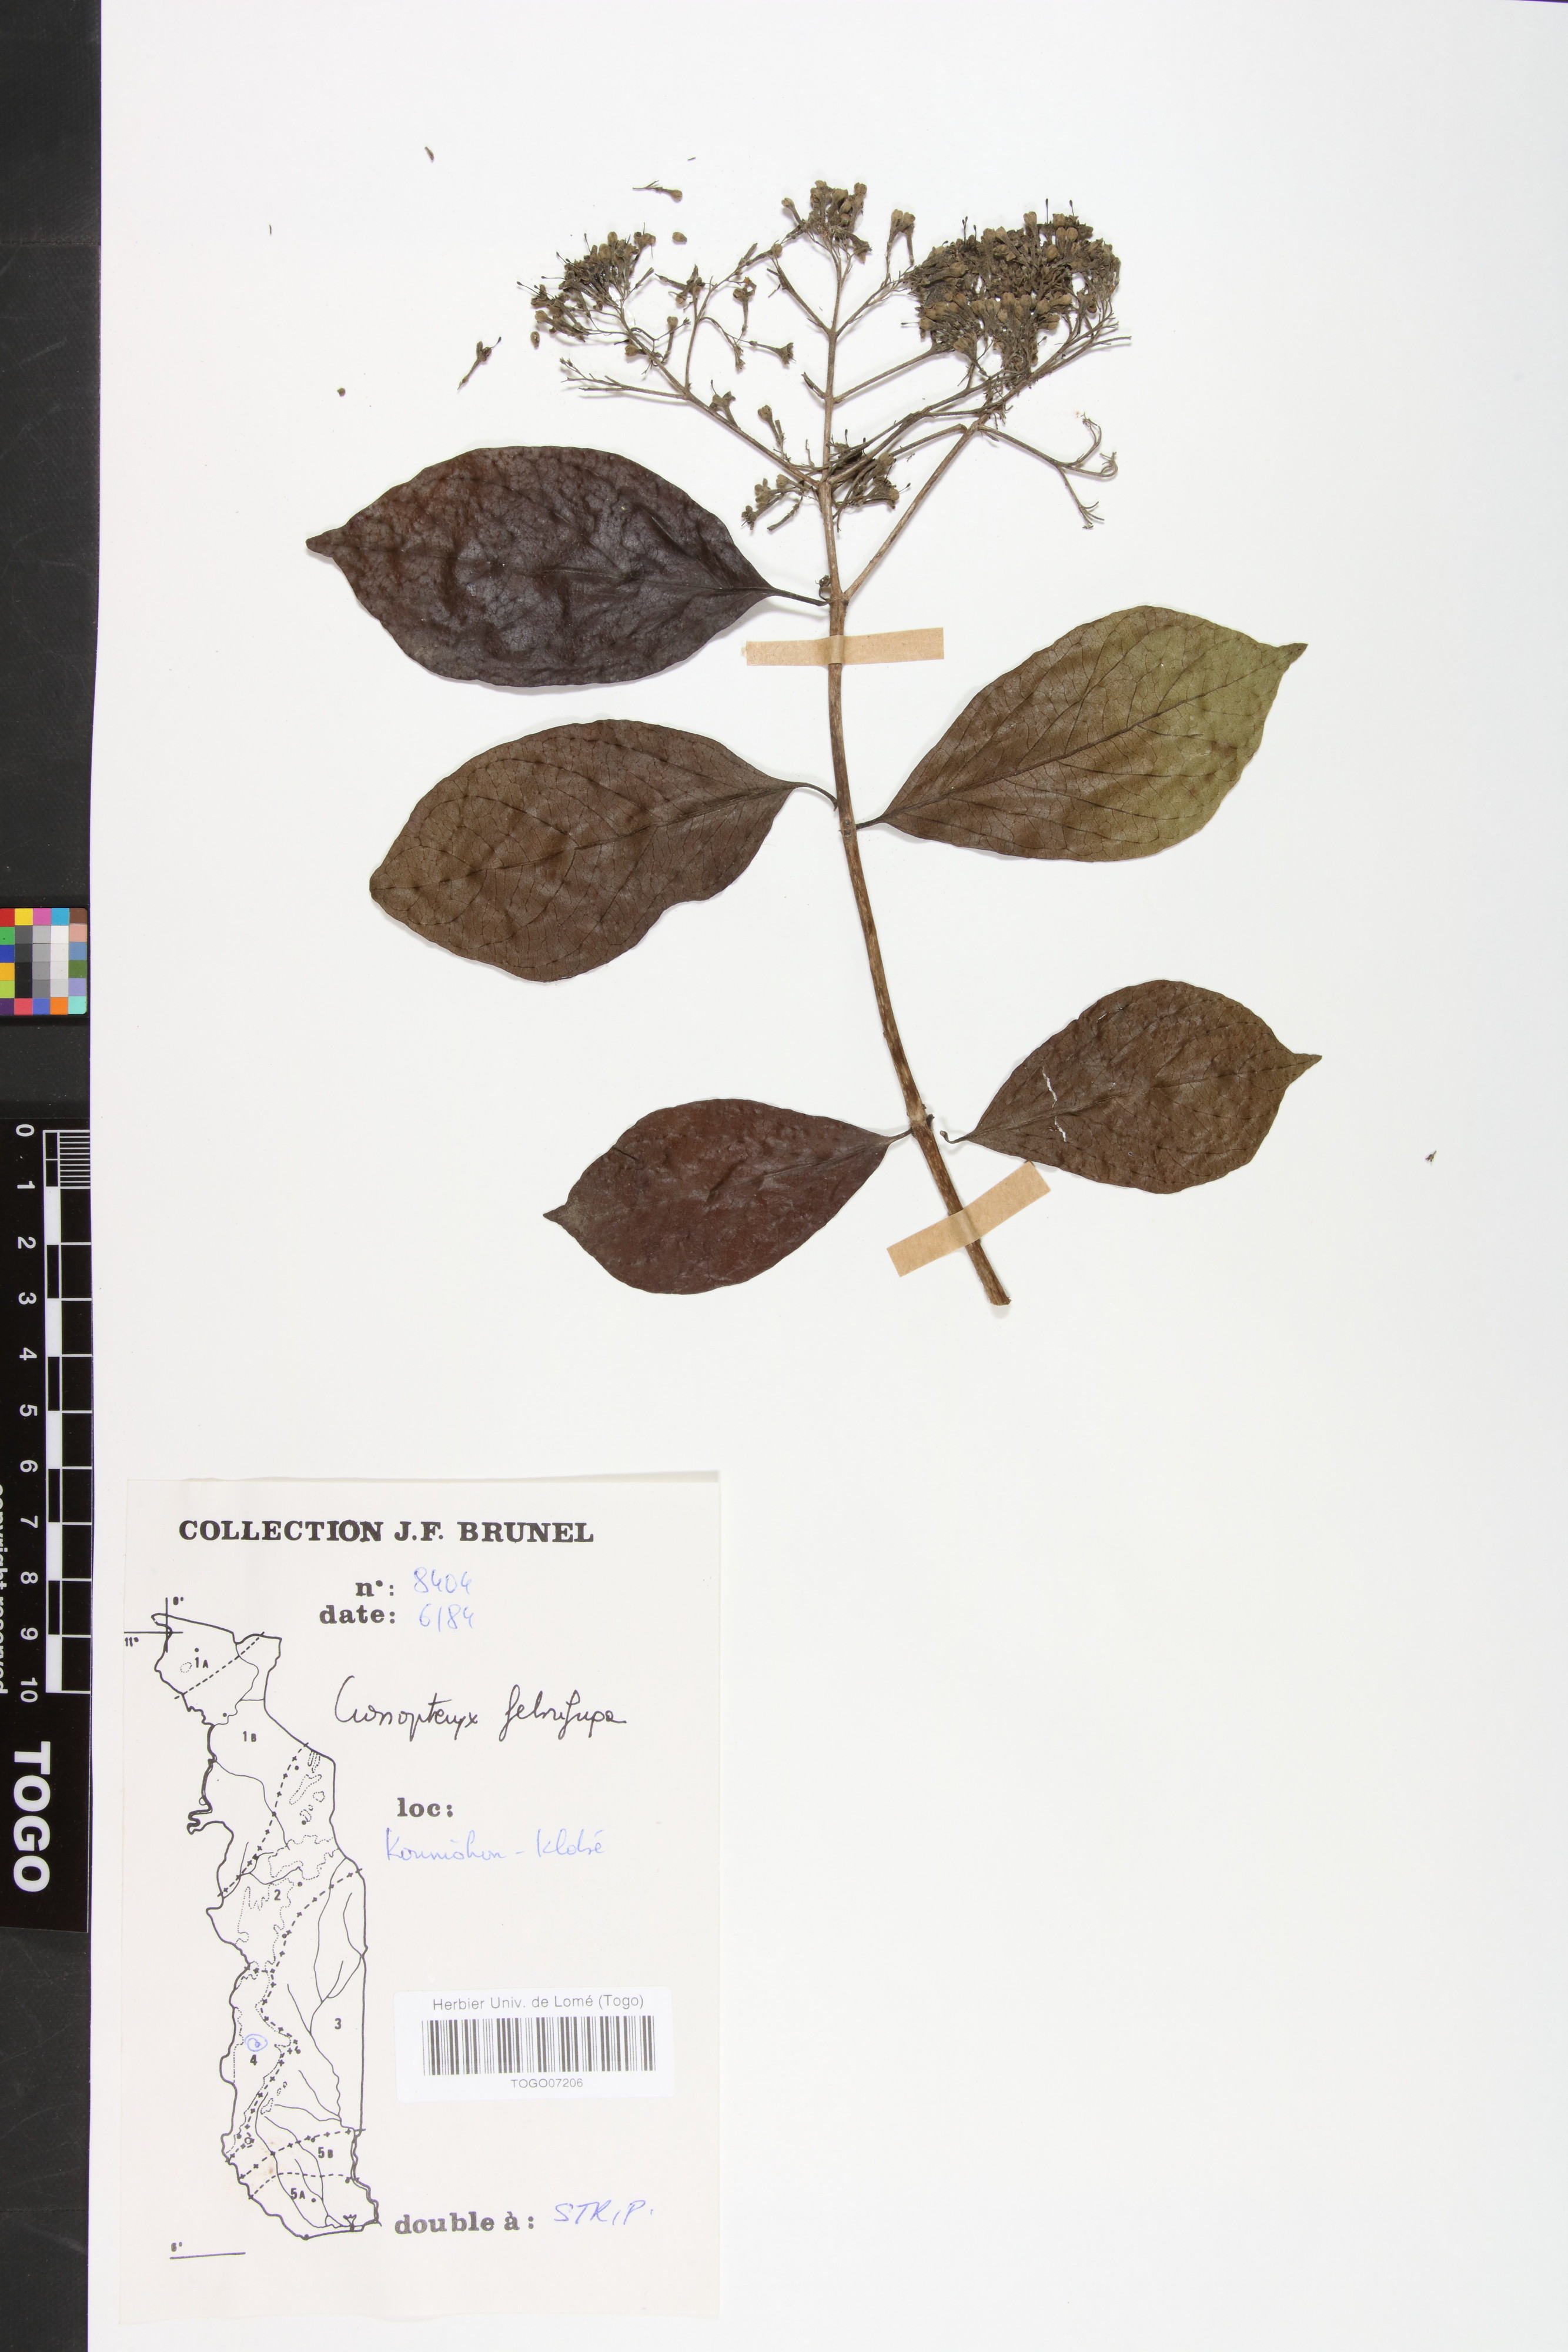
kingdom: Plantae
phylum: Tracheophyta
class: Magnoliopsida
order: Gentianales
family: Rubiaceae
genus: Crossopteryx
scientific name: Crossopteryx febrifuga
